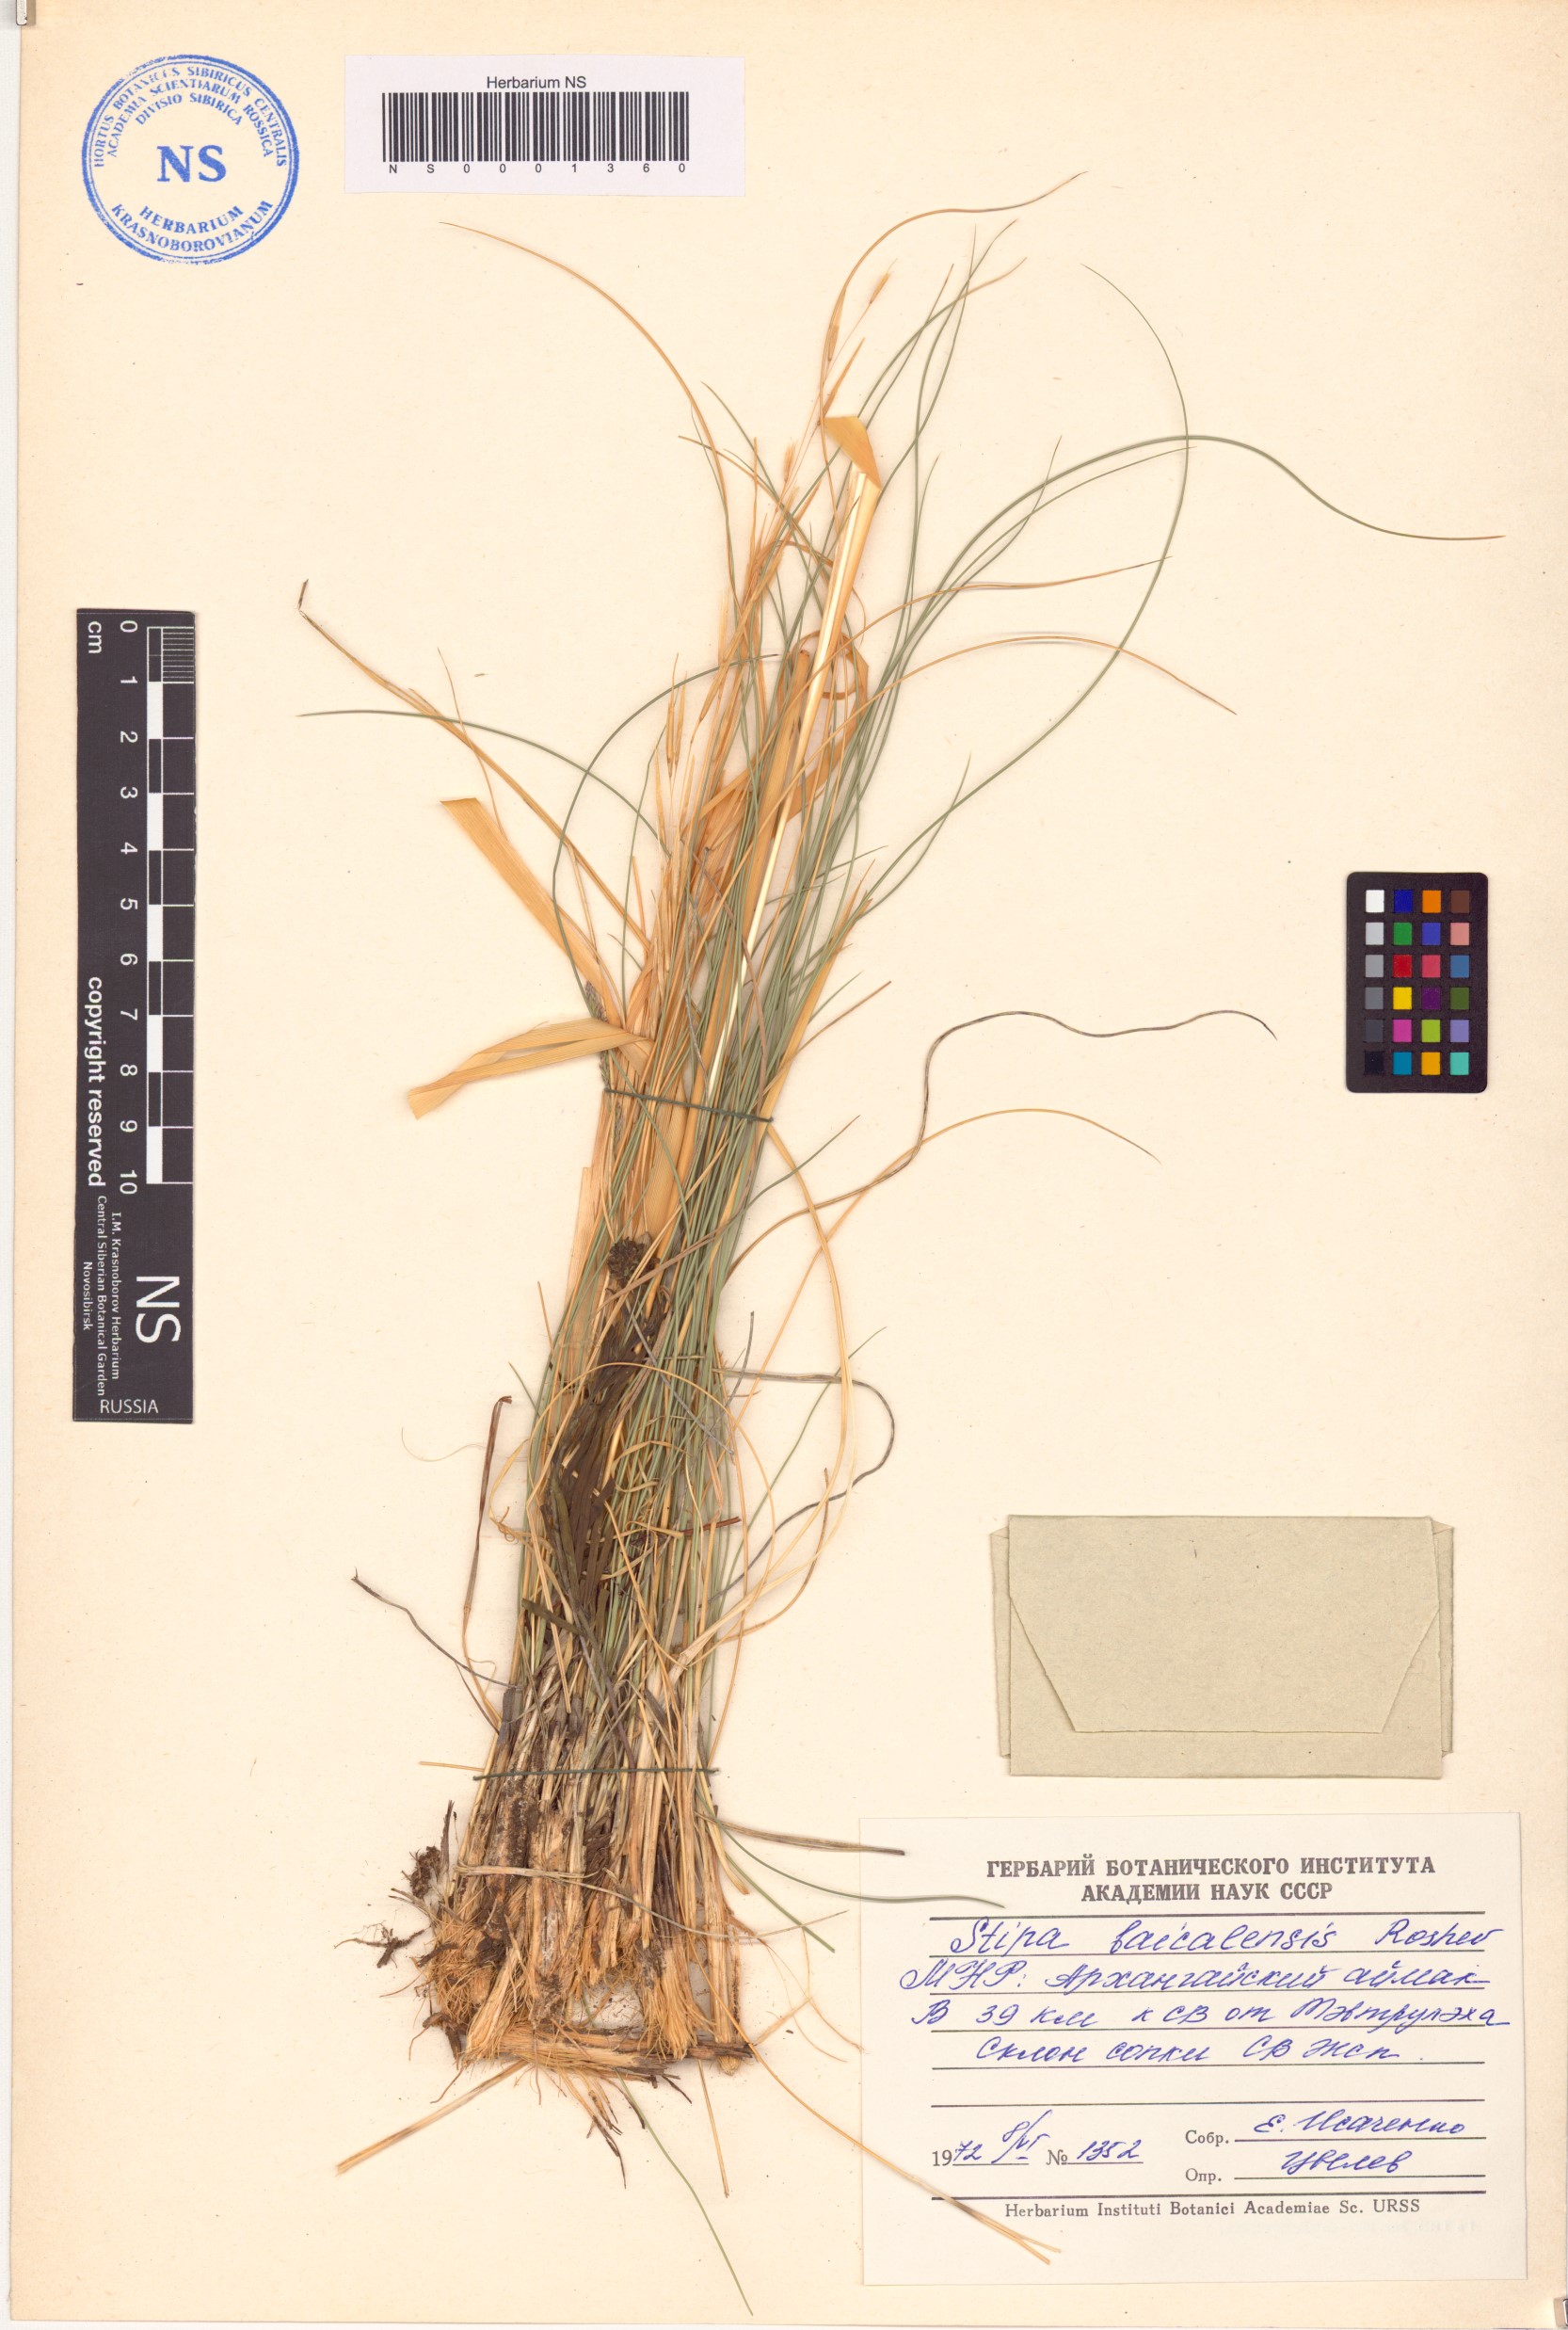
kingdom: Plantae
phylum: Tracheophyta
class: Liliopsida
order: Poales
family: Poaceae
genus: Stipa
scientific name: Stipa baicalensis
